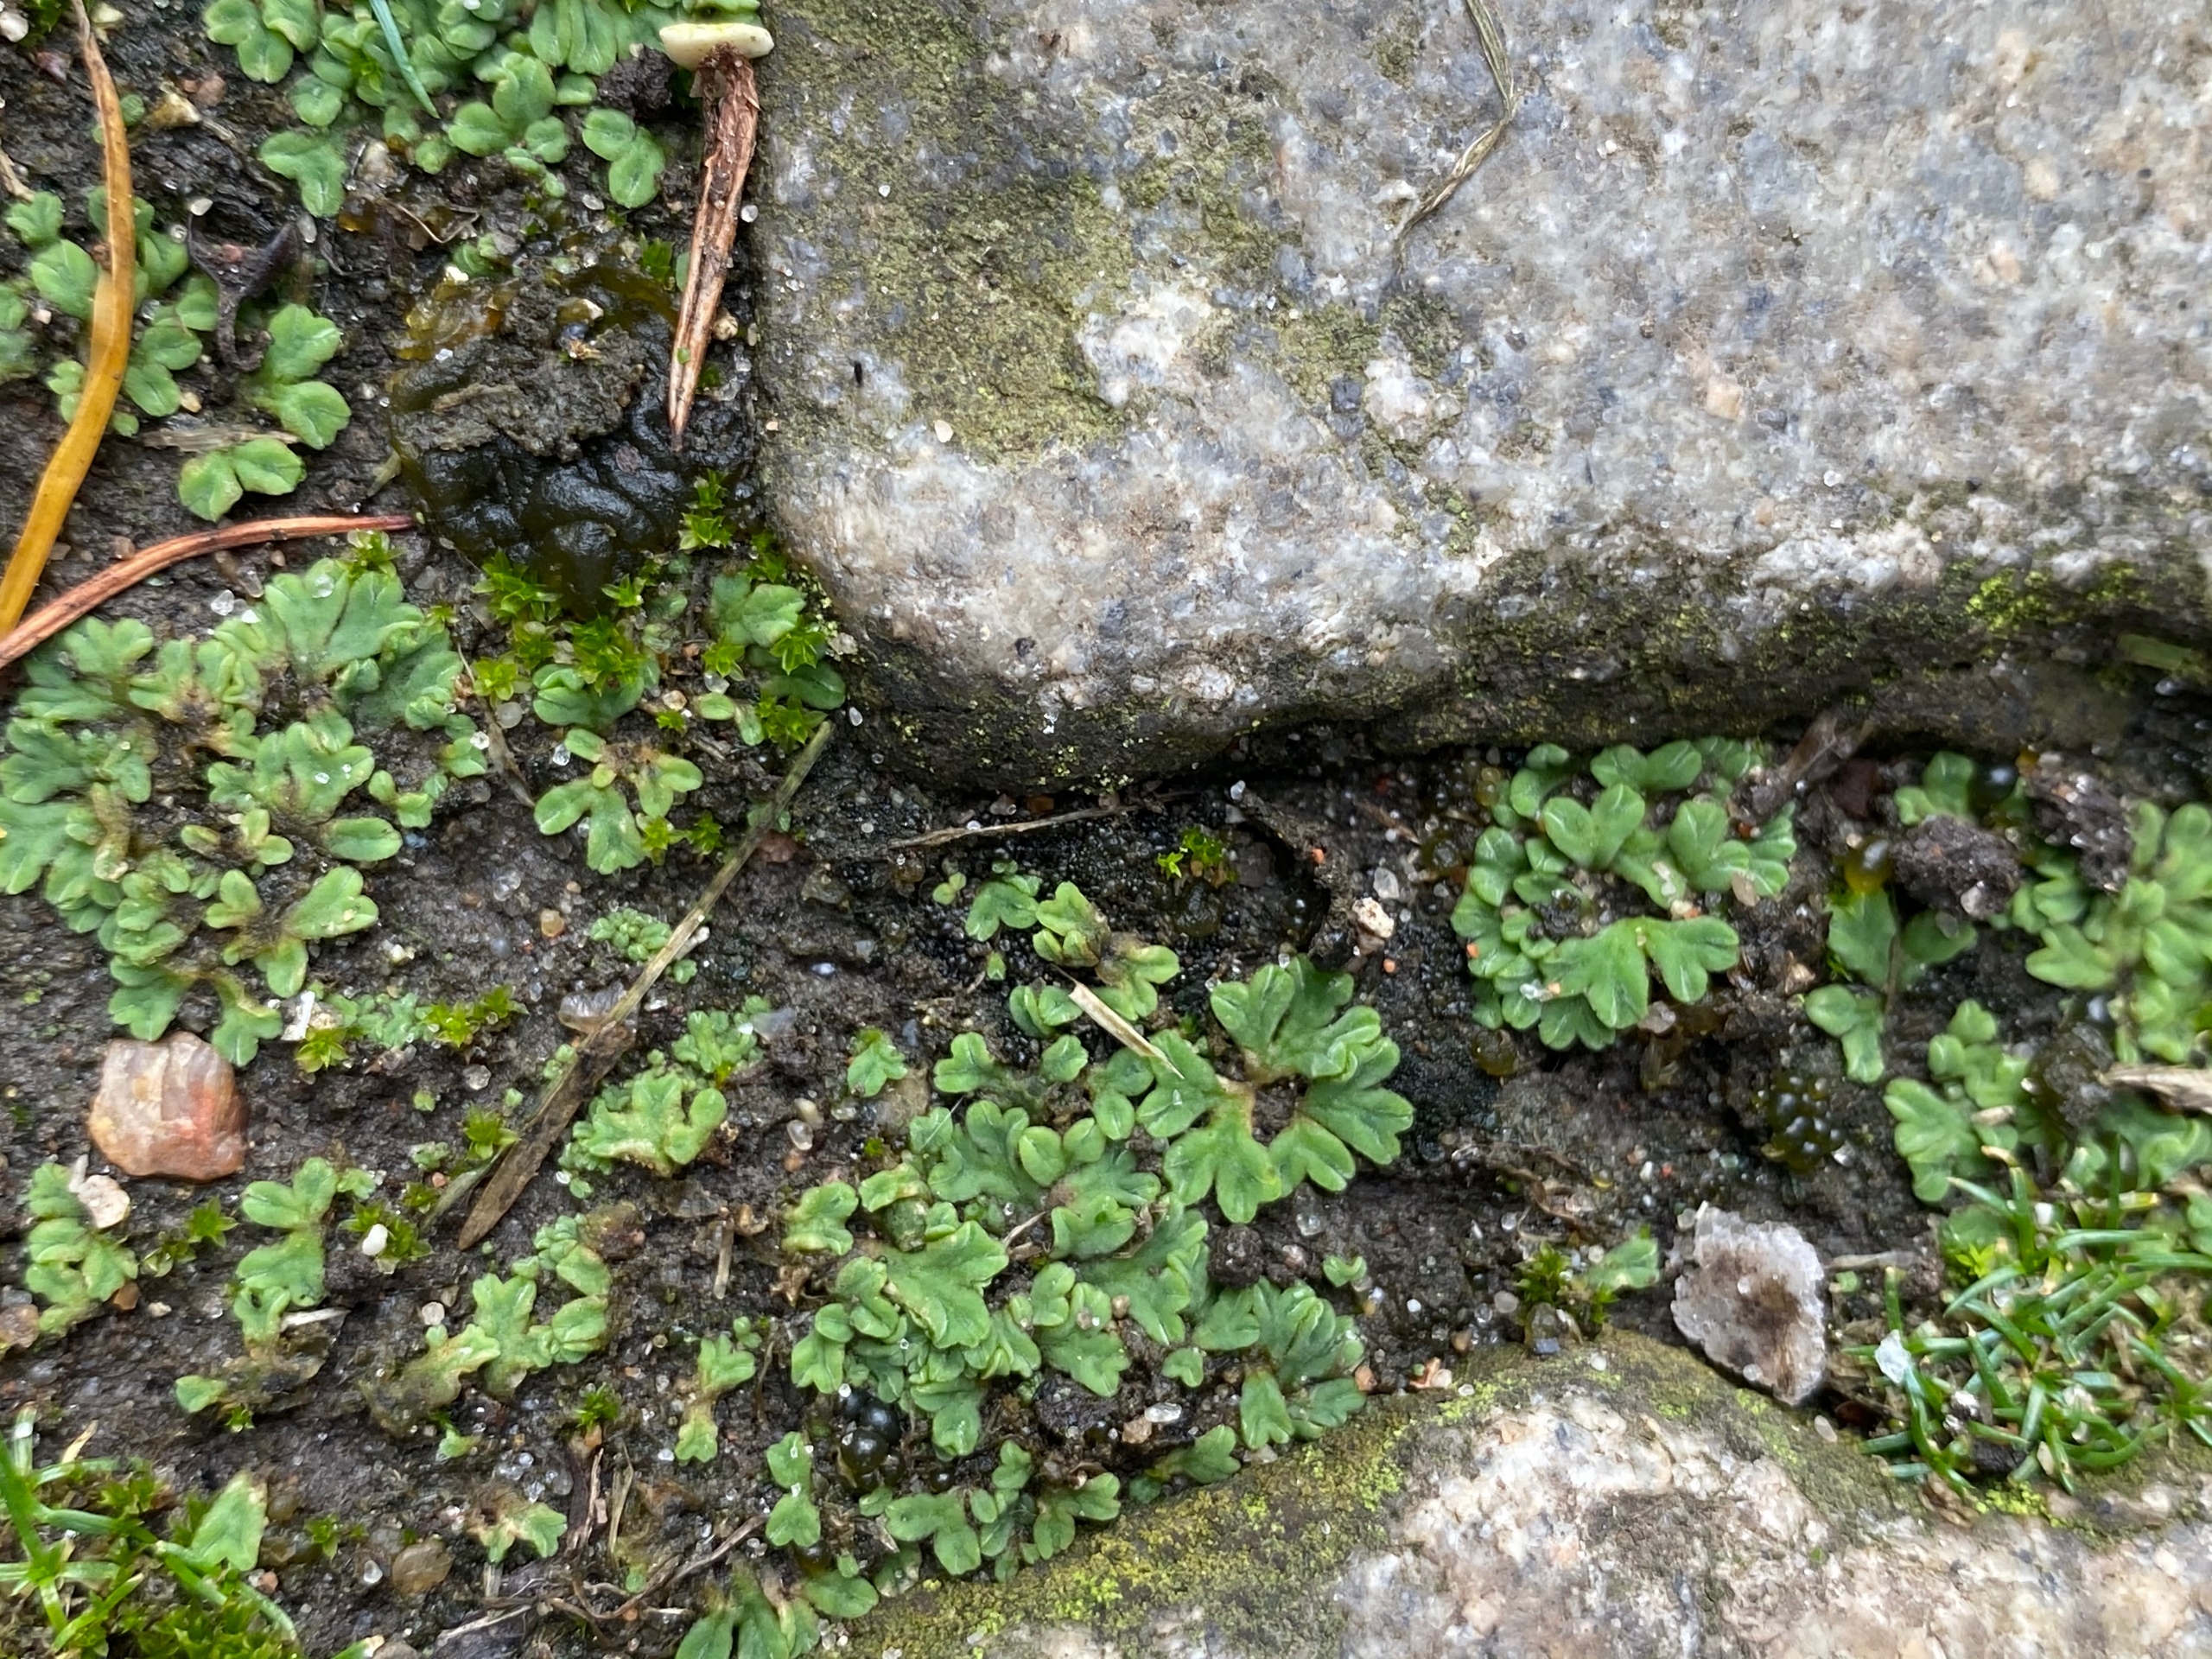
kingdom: Plantae
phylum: Marchantiophyta
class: Marchantiopsida
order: Marchantiales
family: Ricciaceae
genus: Riccia
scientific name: Riccia glauca
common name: Blågrøn stjerneløv
